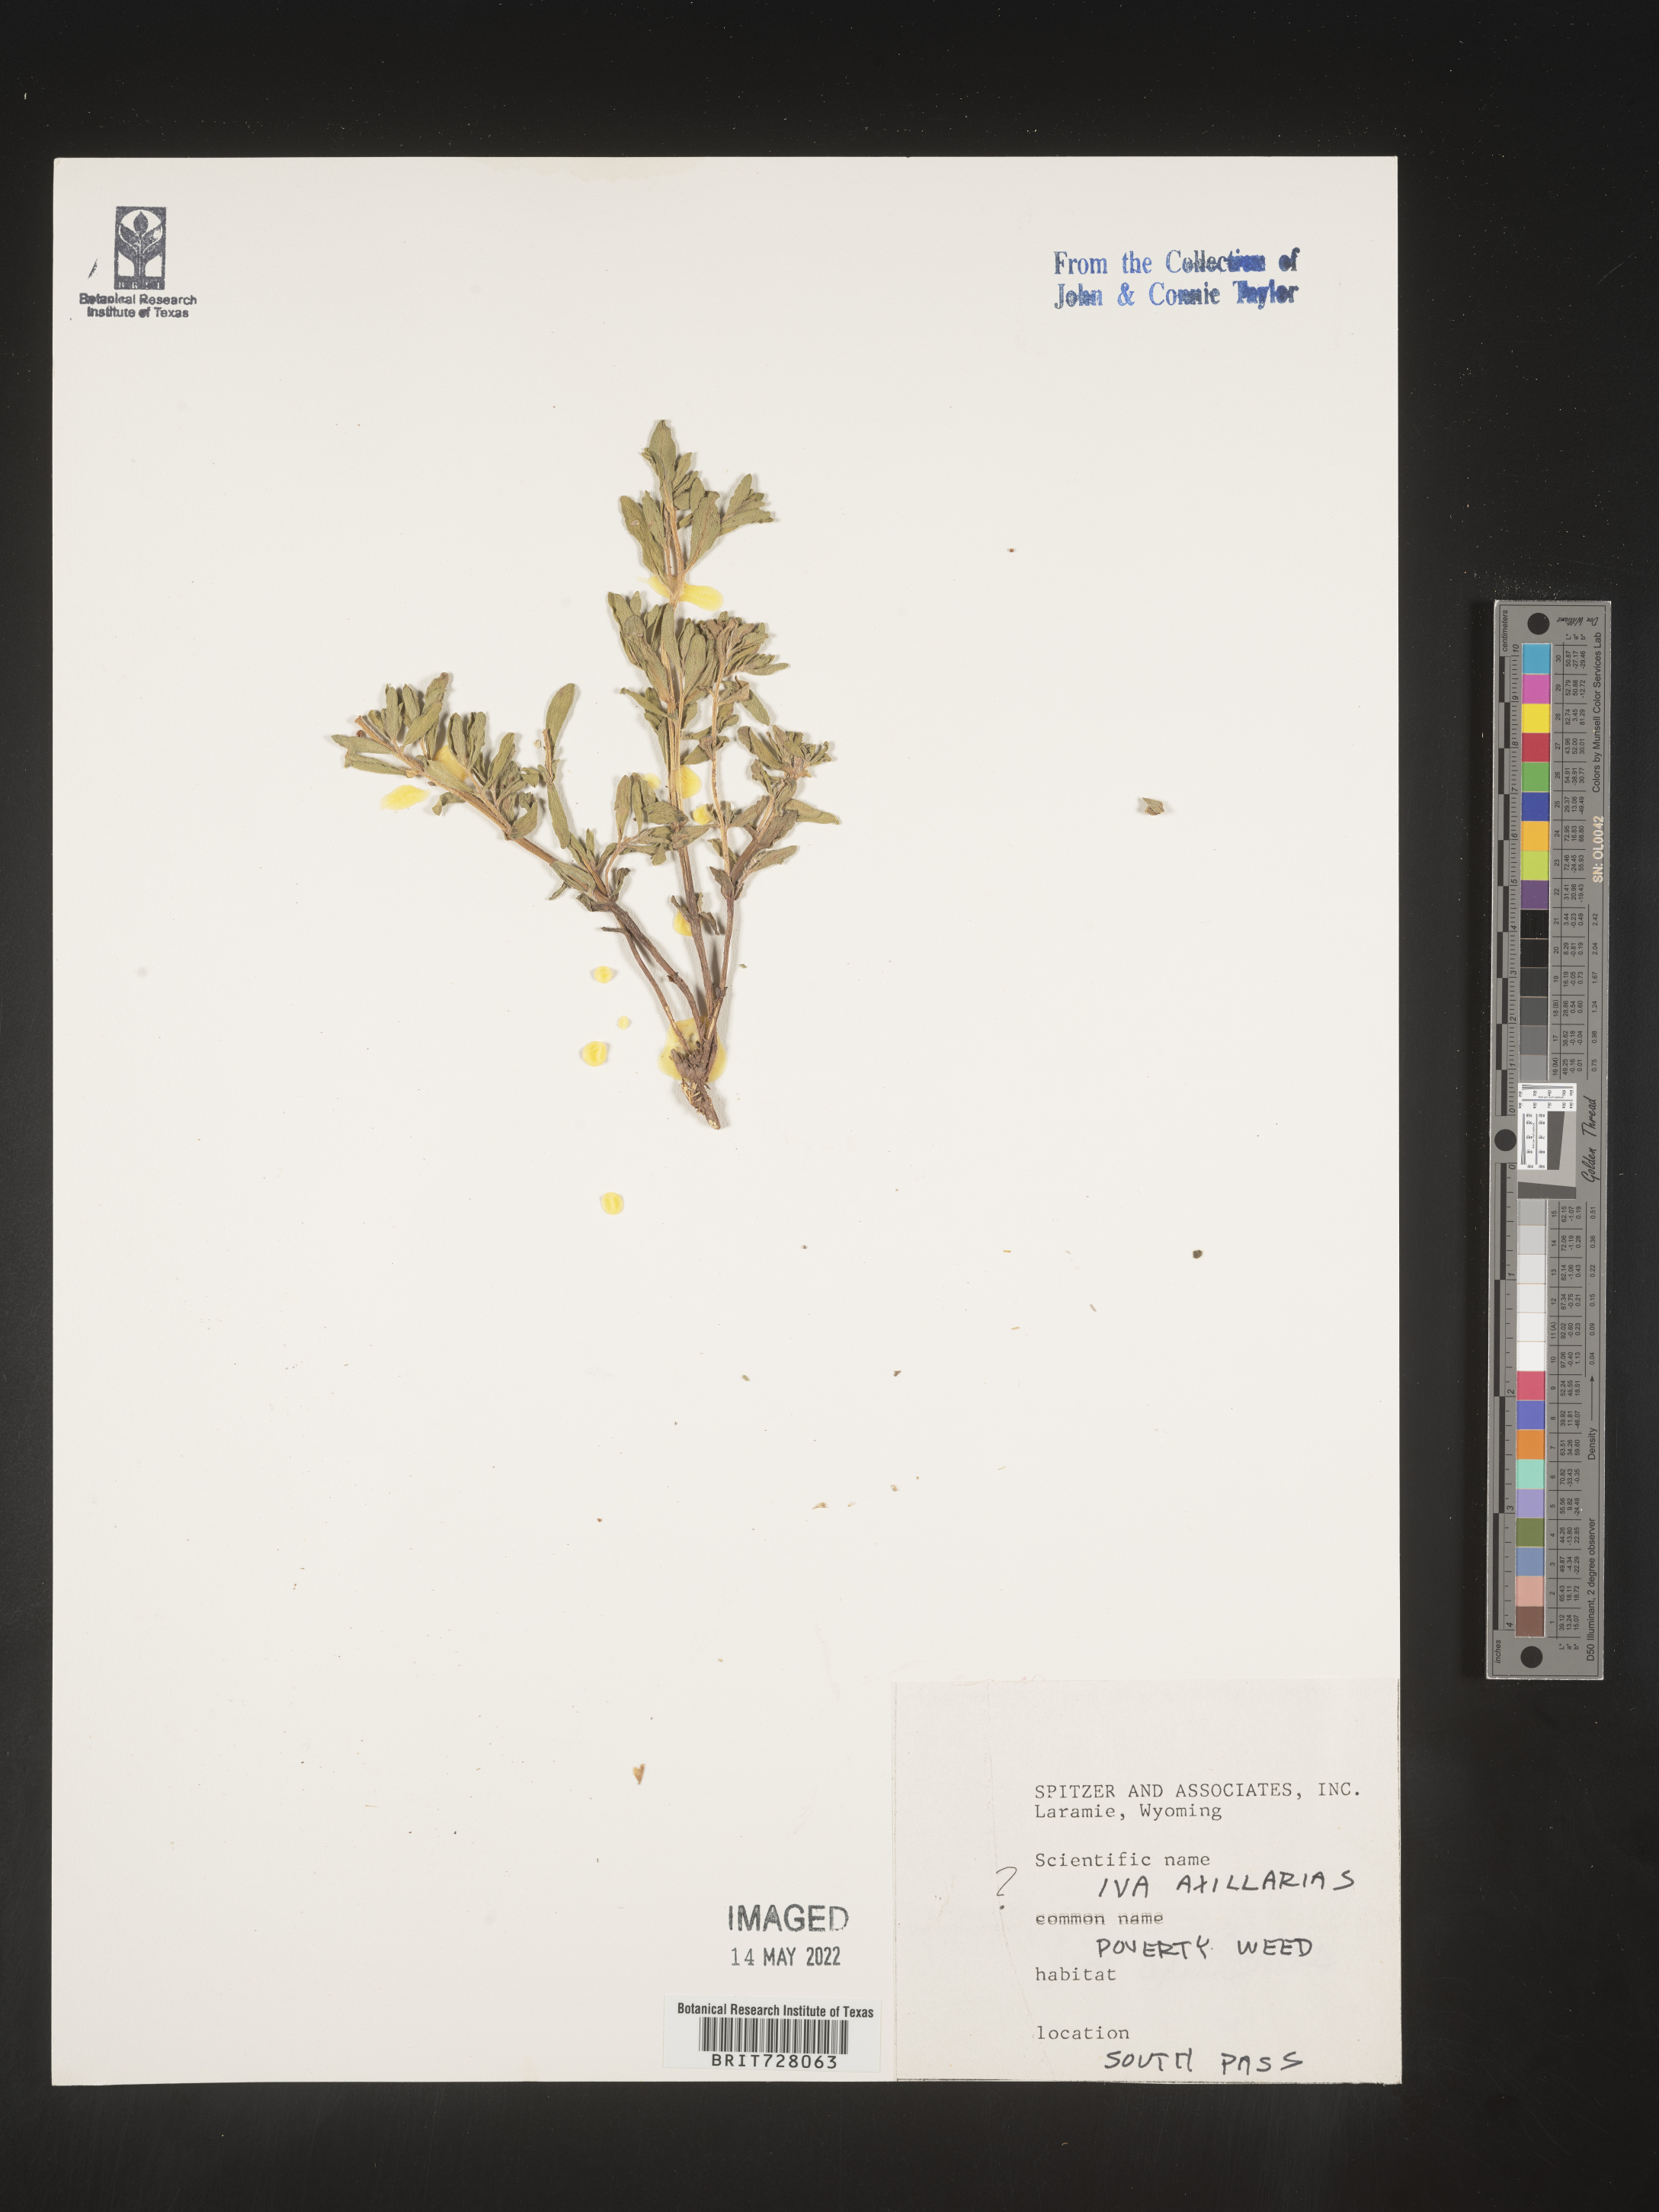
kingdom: Plantae
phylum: Tracheophyta
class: Magnoliopsida
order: Asterales
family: Asteraceae
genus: Iva
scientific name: Iva axillaris
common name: Poverty sumpweed
